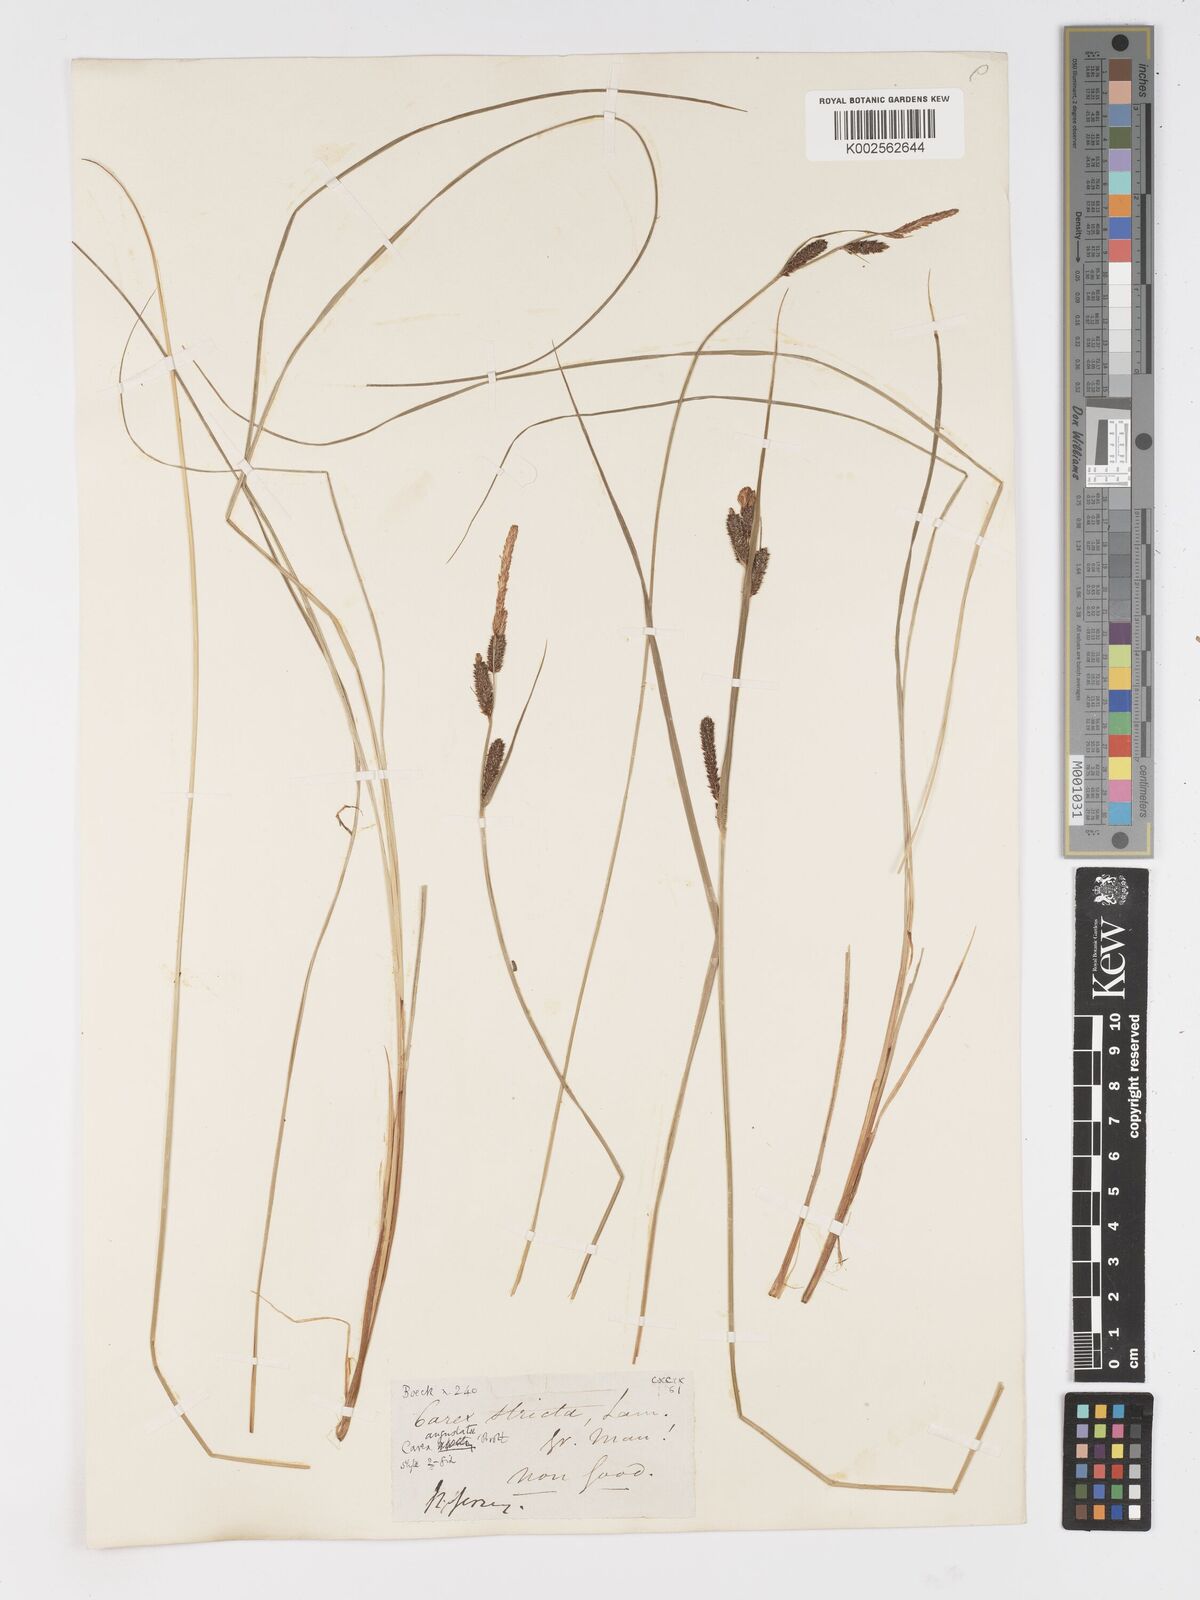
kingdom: Plantae
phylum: Tracheophyta
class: Liliopsida
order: Poales
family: Cyperaceae
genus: Carex
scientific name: Carex stricta
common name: Hummock sedge
